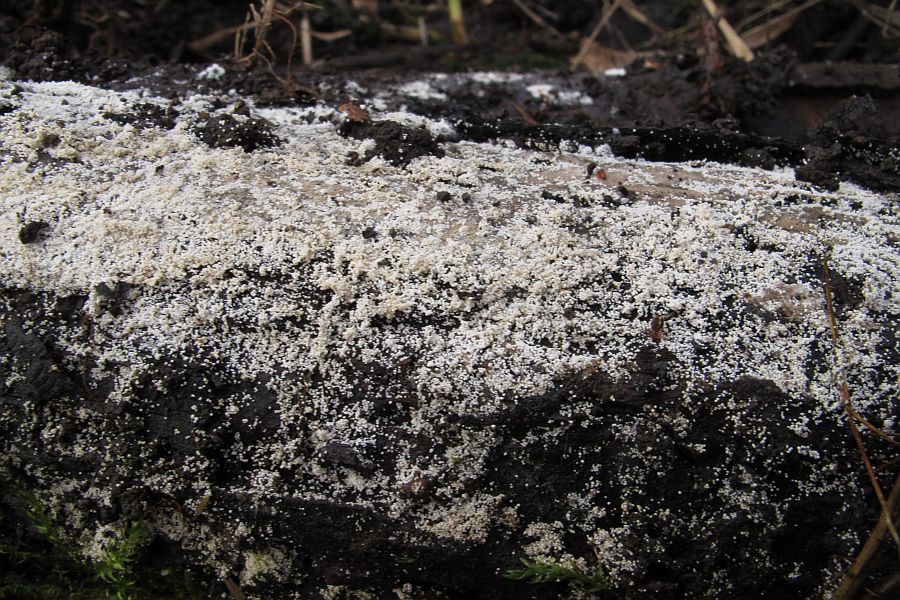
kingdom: Fungi
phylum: Basidiomycota
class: Agaricomycetes
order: Polyporales
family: Meruliaceae
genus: Bulbillomyces
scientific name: Bulbillomyces farinosus
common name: æg-kalkskind
